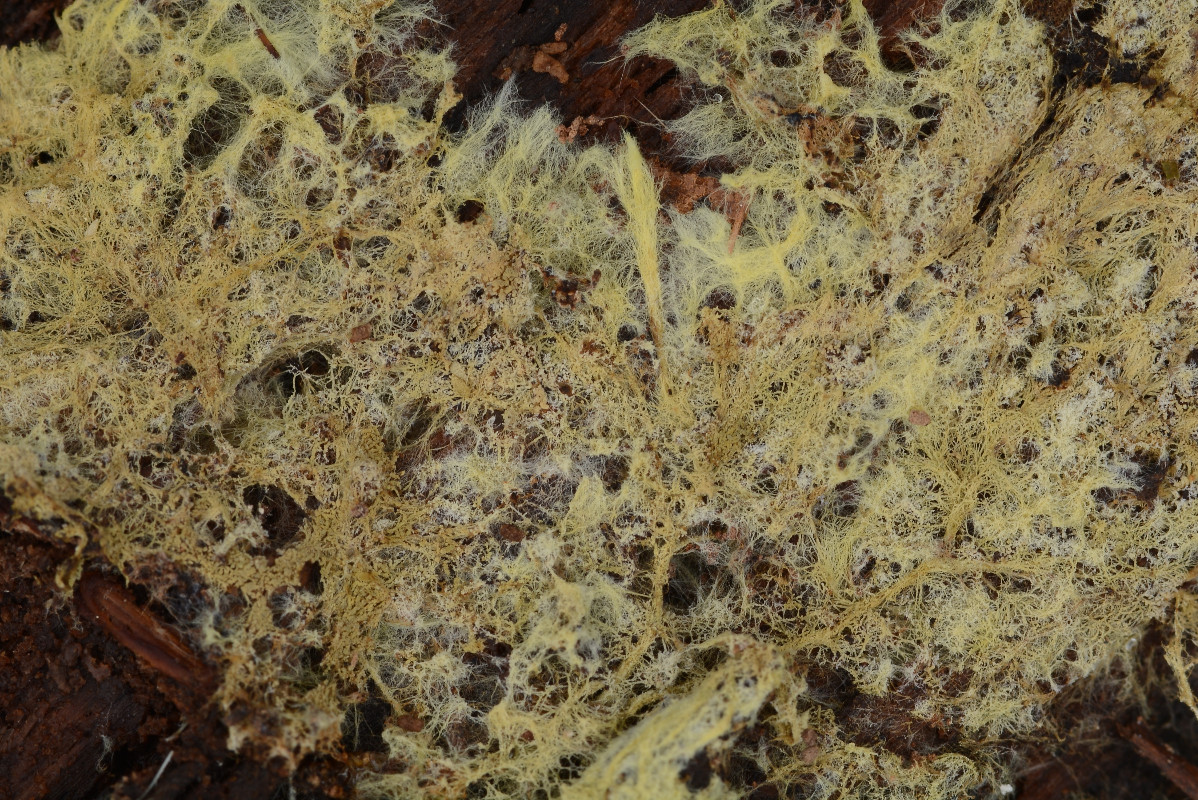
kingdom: Fungi
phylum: Basidiomycota
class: Agaricomycetes
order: Russulales
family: Xenasmataceae
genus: Xenasmatella
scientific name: Xenasmatella vaga
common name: svovl-strenghinde
